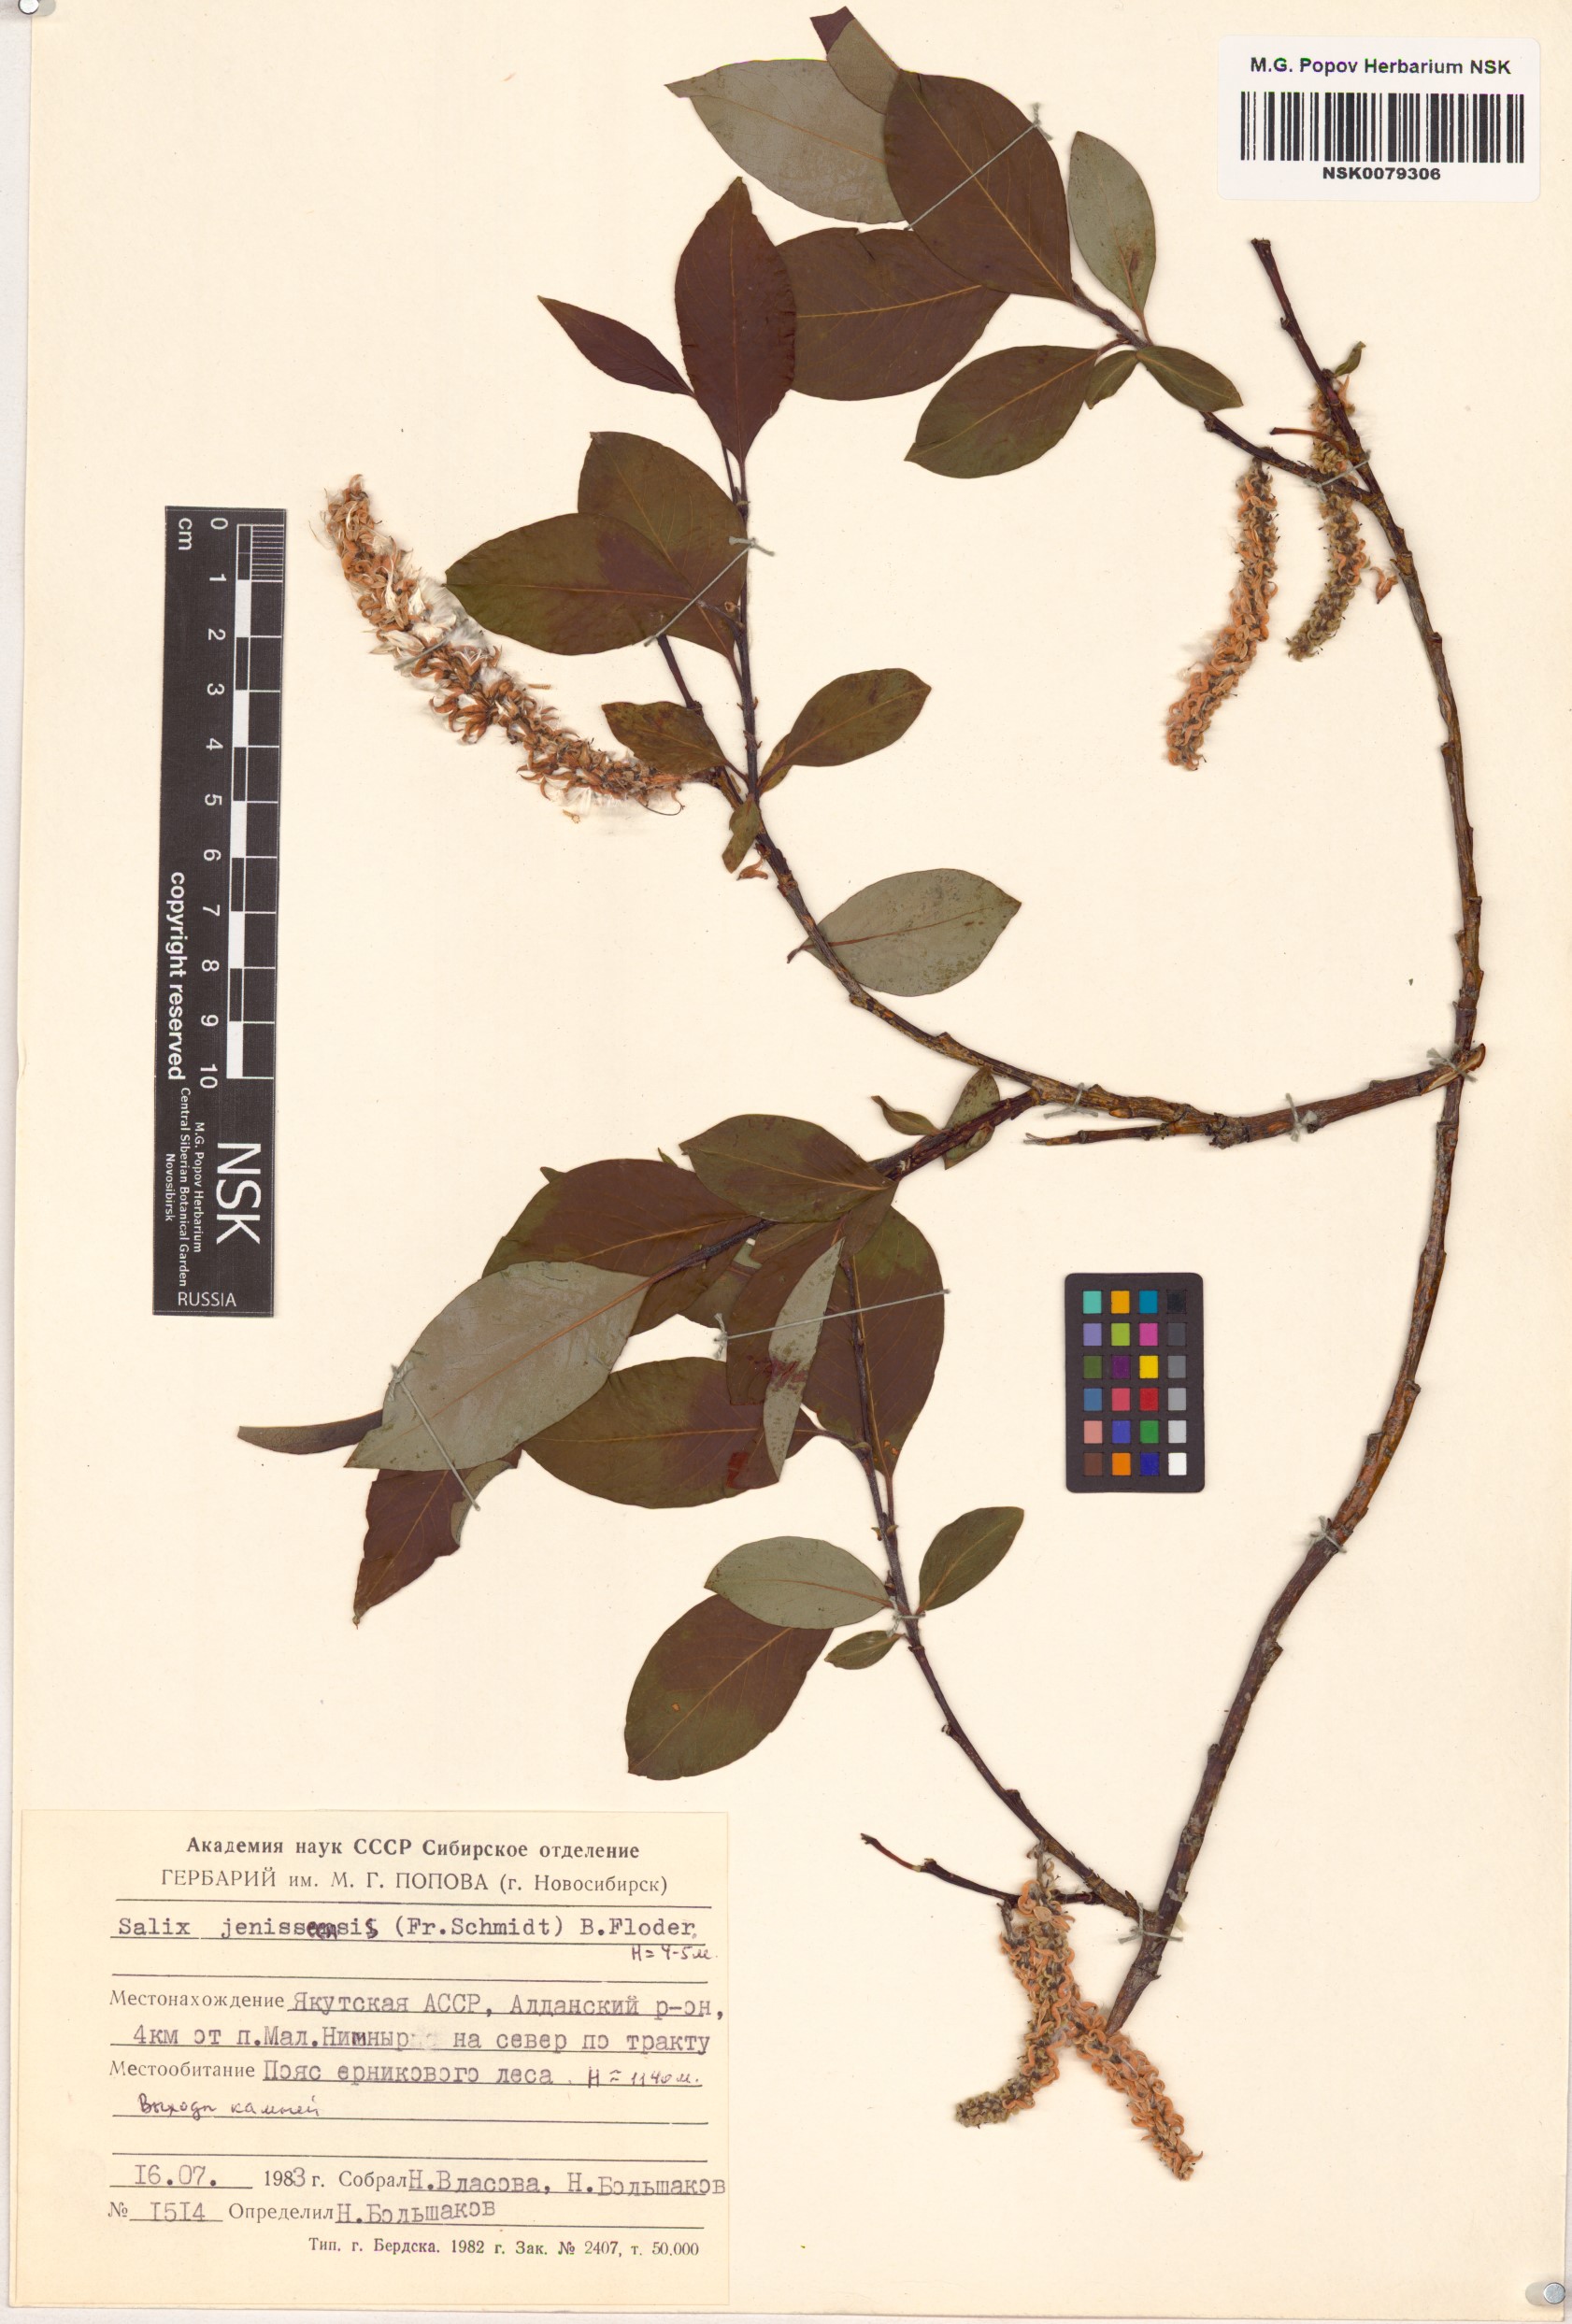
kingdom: Plantae
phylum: Tracheophyta
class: Magnoliopsida
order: Malpighiales
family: Salicaceae
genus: Salix
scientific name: Salix jenisseensis
